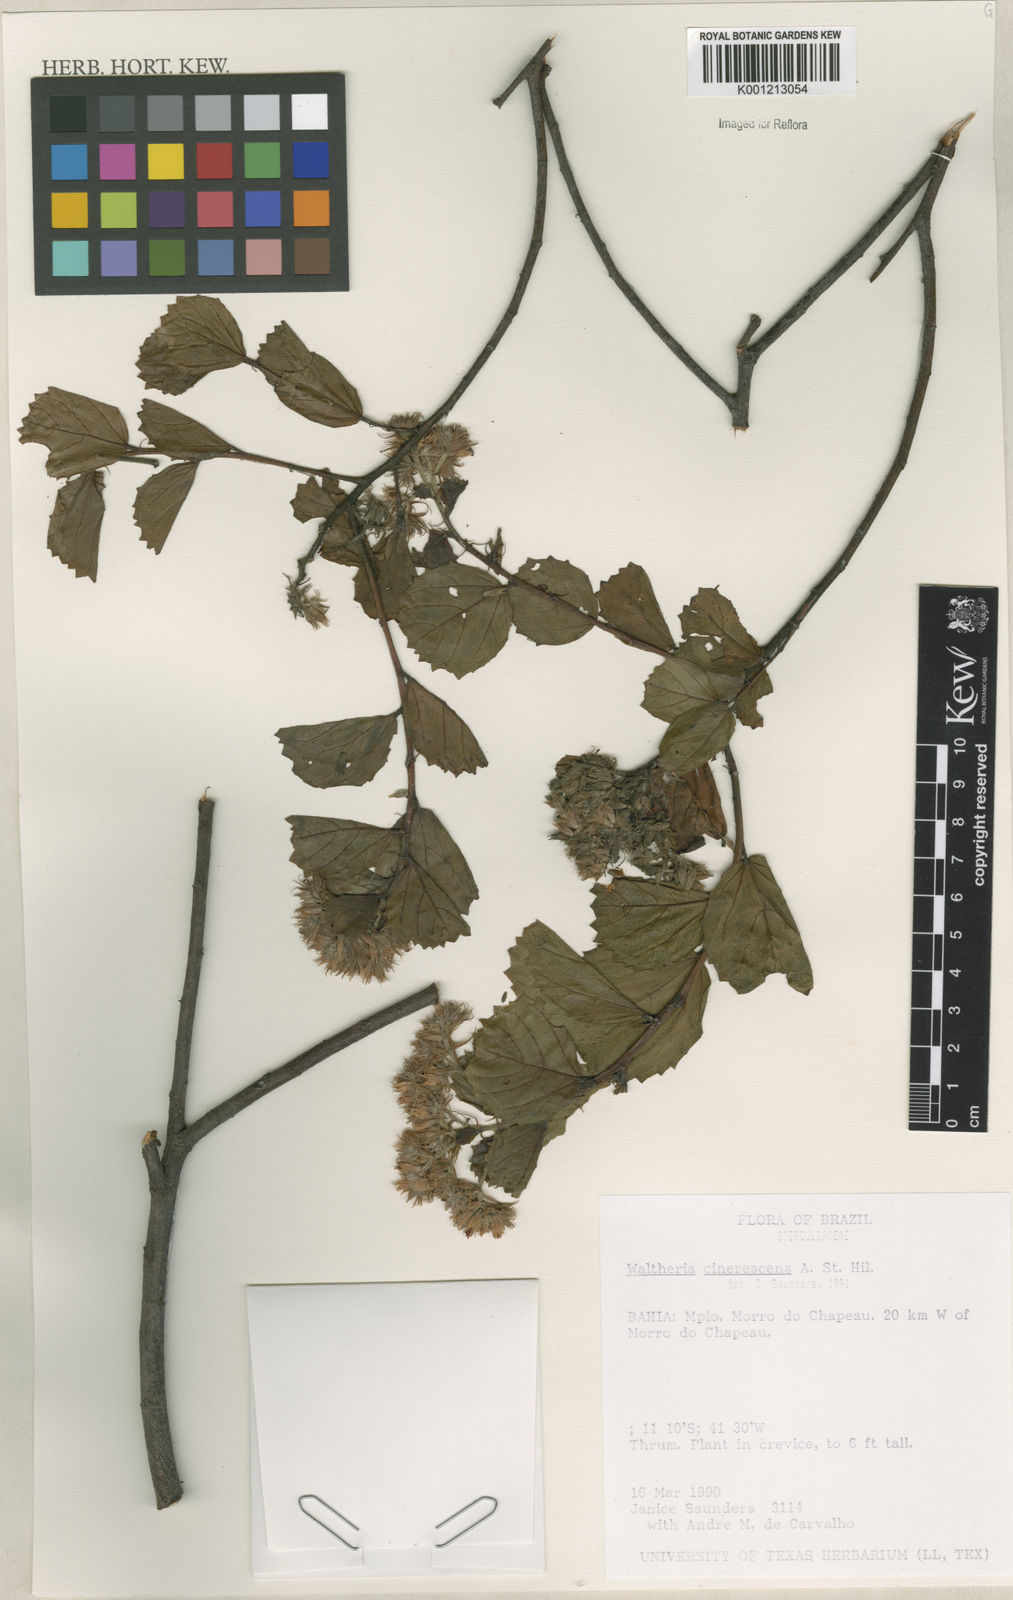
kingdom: Plantae
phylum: Tracheophyta
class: Magnoliopsida
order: Malvales
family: Malvaceae
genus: Waltheria
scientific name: Waltheria cinerescens
